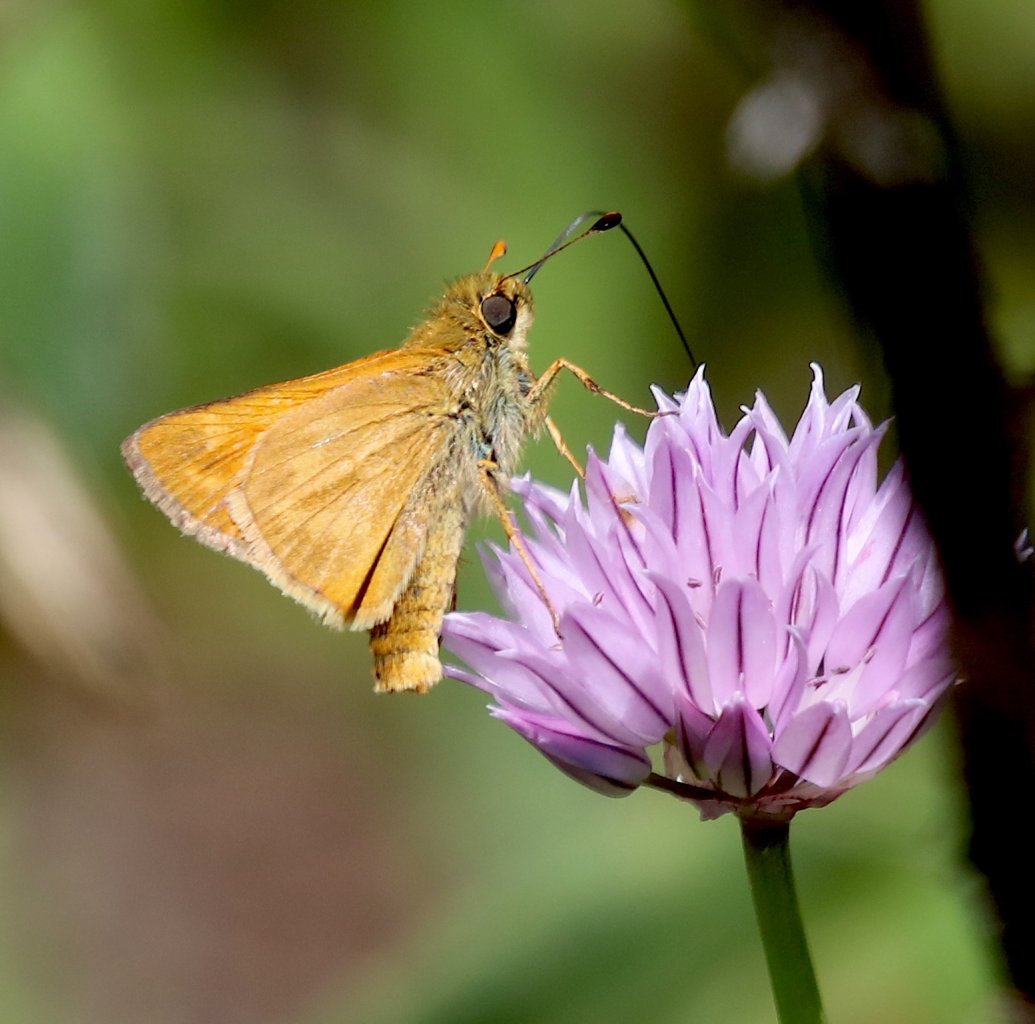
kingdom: Animalia
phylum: Arthropoda
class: Insecta
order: Lepidoptera
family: Hesperiidae
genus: Hesperia
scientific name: Hesperia sassacus
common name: Sassacus Skipper
